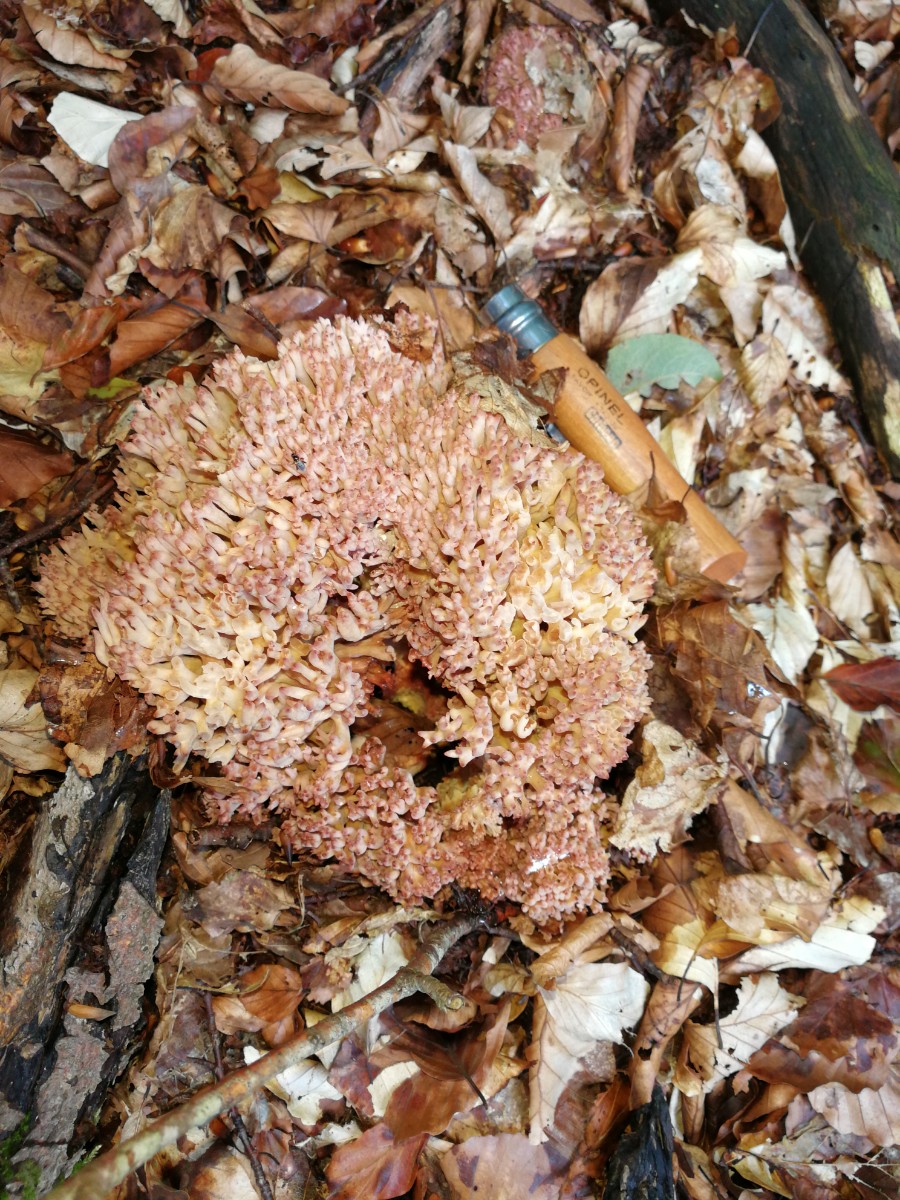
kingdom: Fungi
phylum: Basidiomycota
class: Agaricomycetes
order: Gomphales
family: Gomphaceae
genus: Ramaria
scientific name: Ramaria botrytis
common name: drue-koralsvamp
